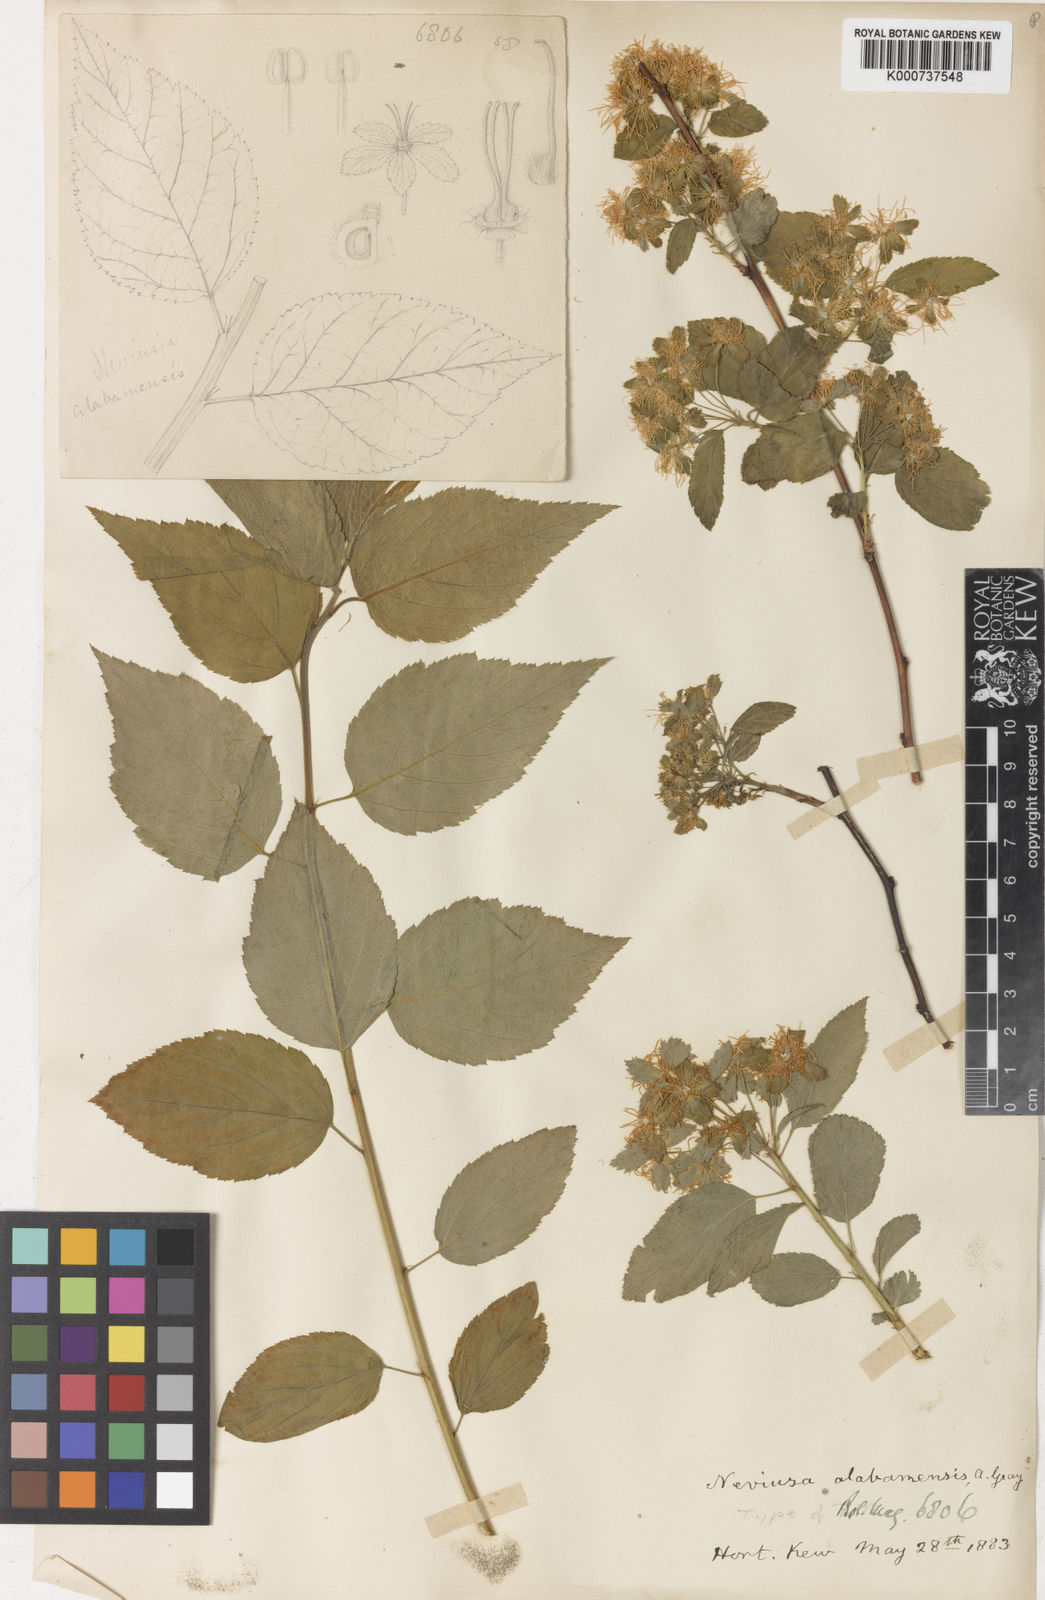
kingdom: Plantae
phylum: Tracheophyta
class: Magnoliopsida
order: Rosales
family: Rosaceae
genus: Neviusia
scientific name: Neviusia alabamensis
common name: Snow-wreath
